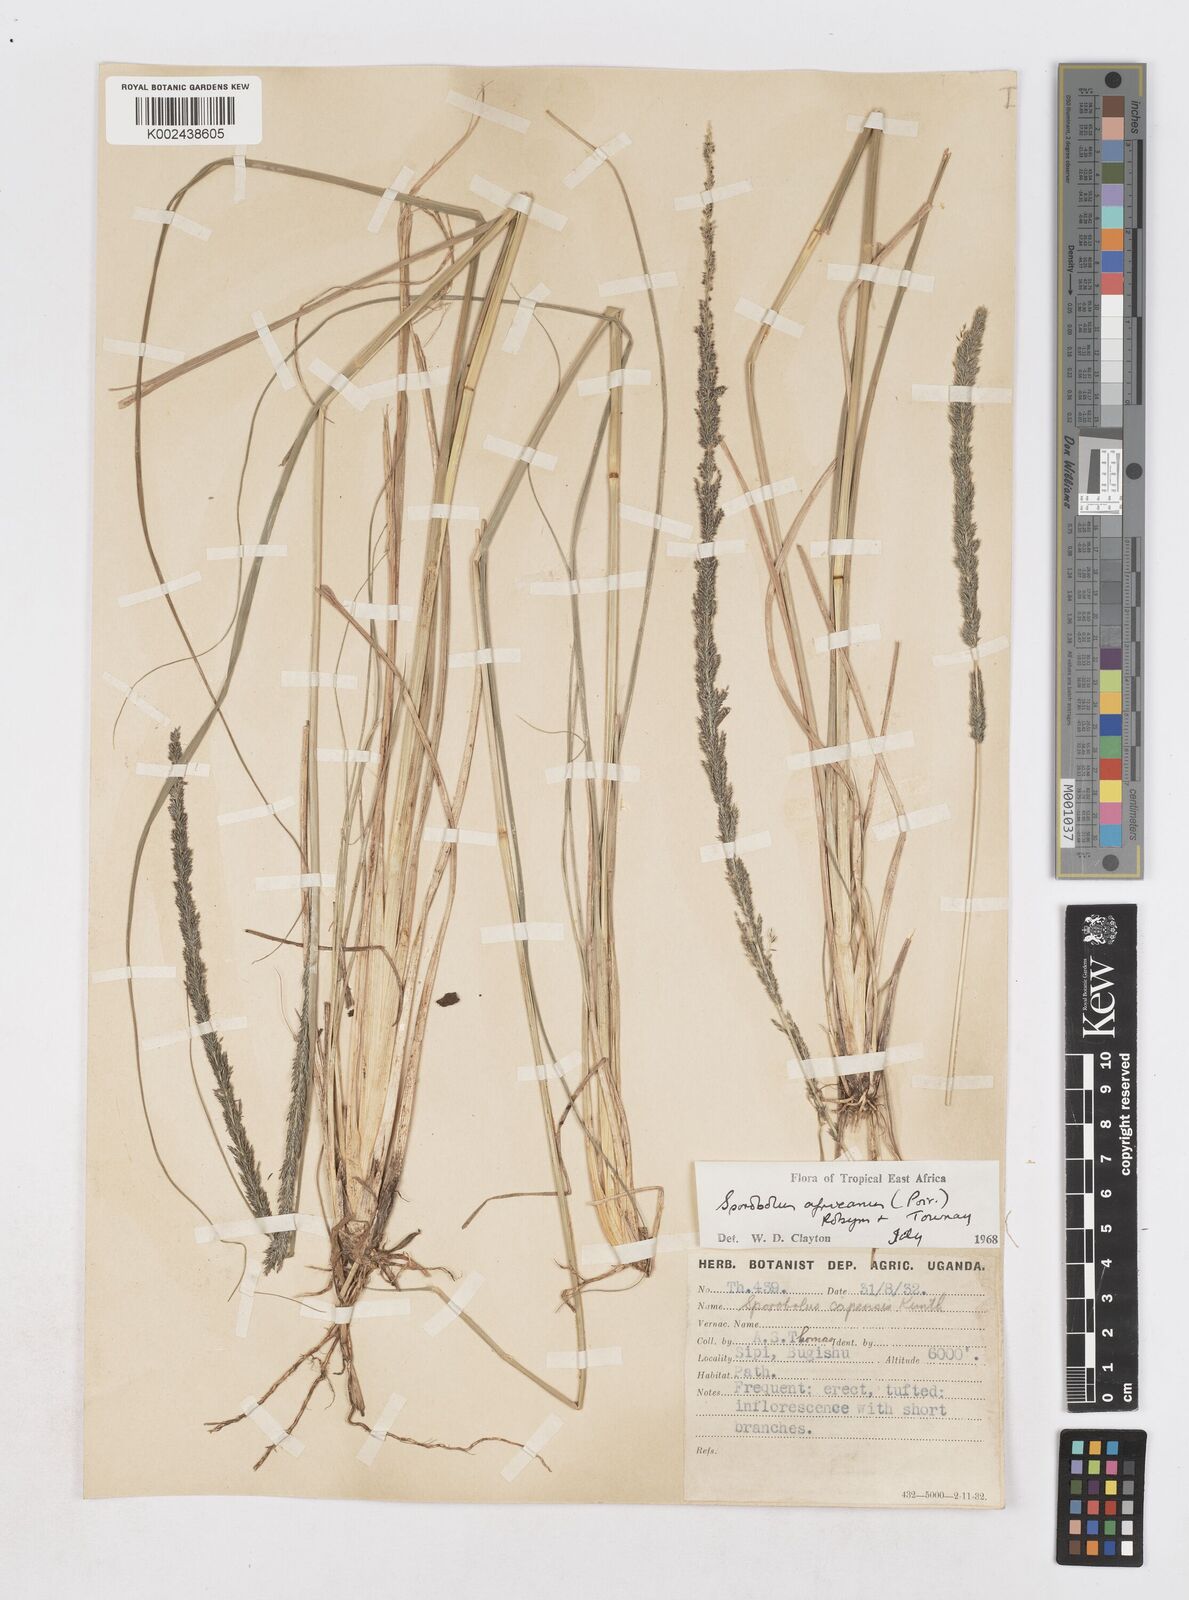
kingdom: Plantae
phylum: Tracheophyta
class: Liliopsida
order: Poales
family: Poaceae
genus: Sporobolus
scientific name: Sporobolus africanus
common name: African dropseed
